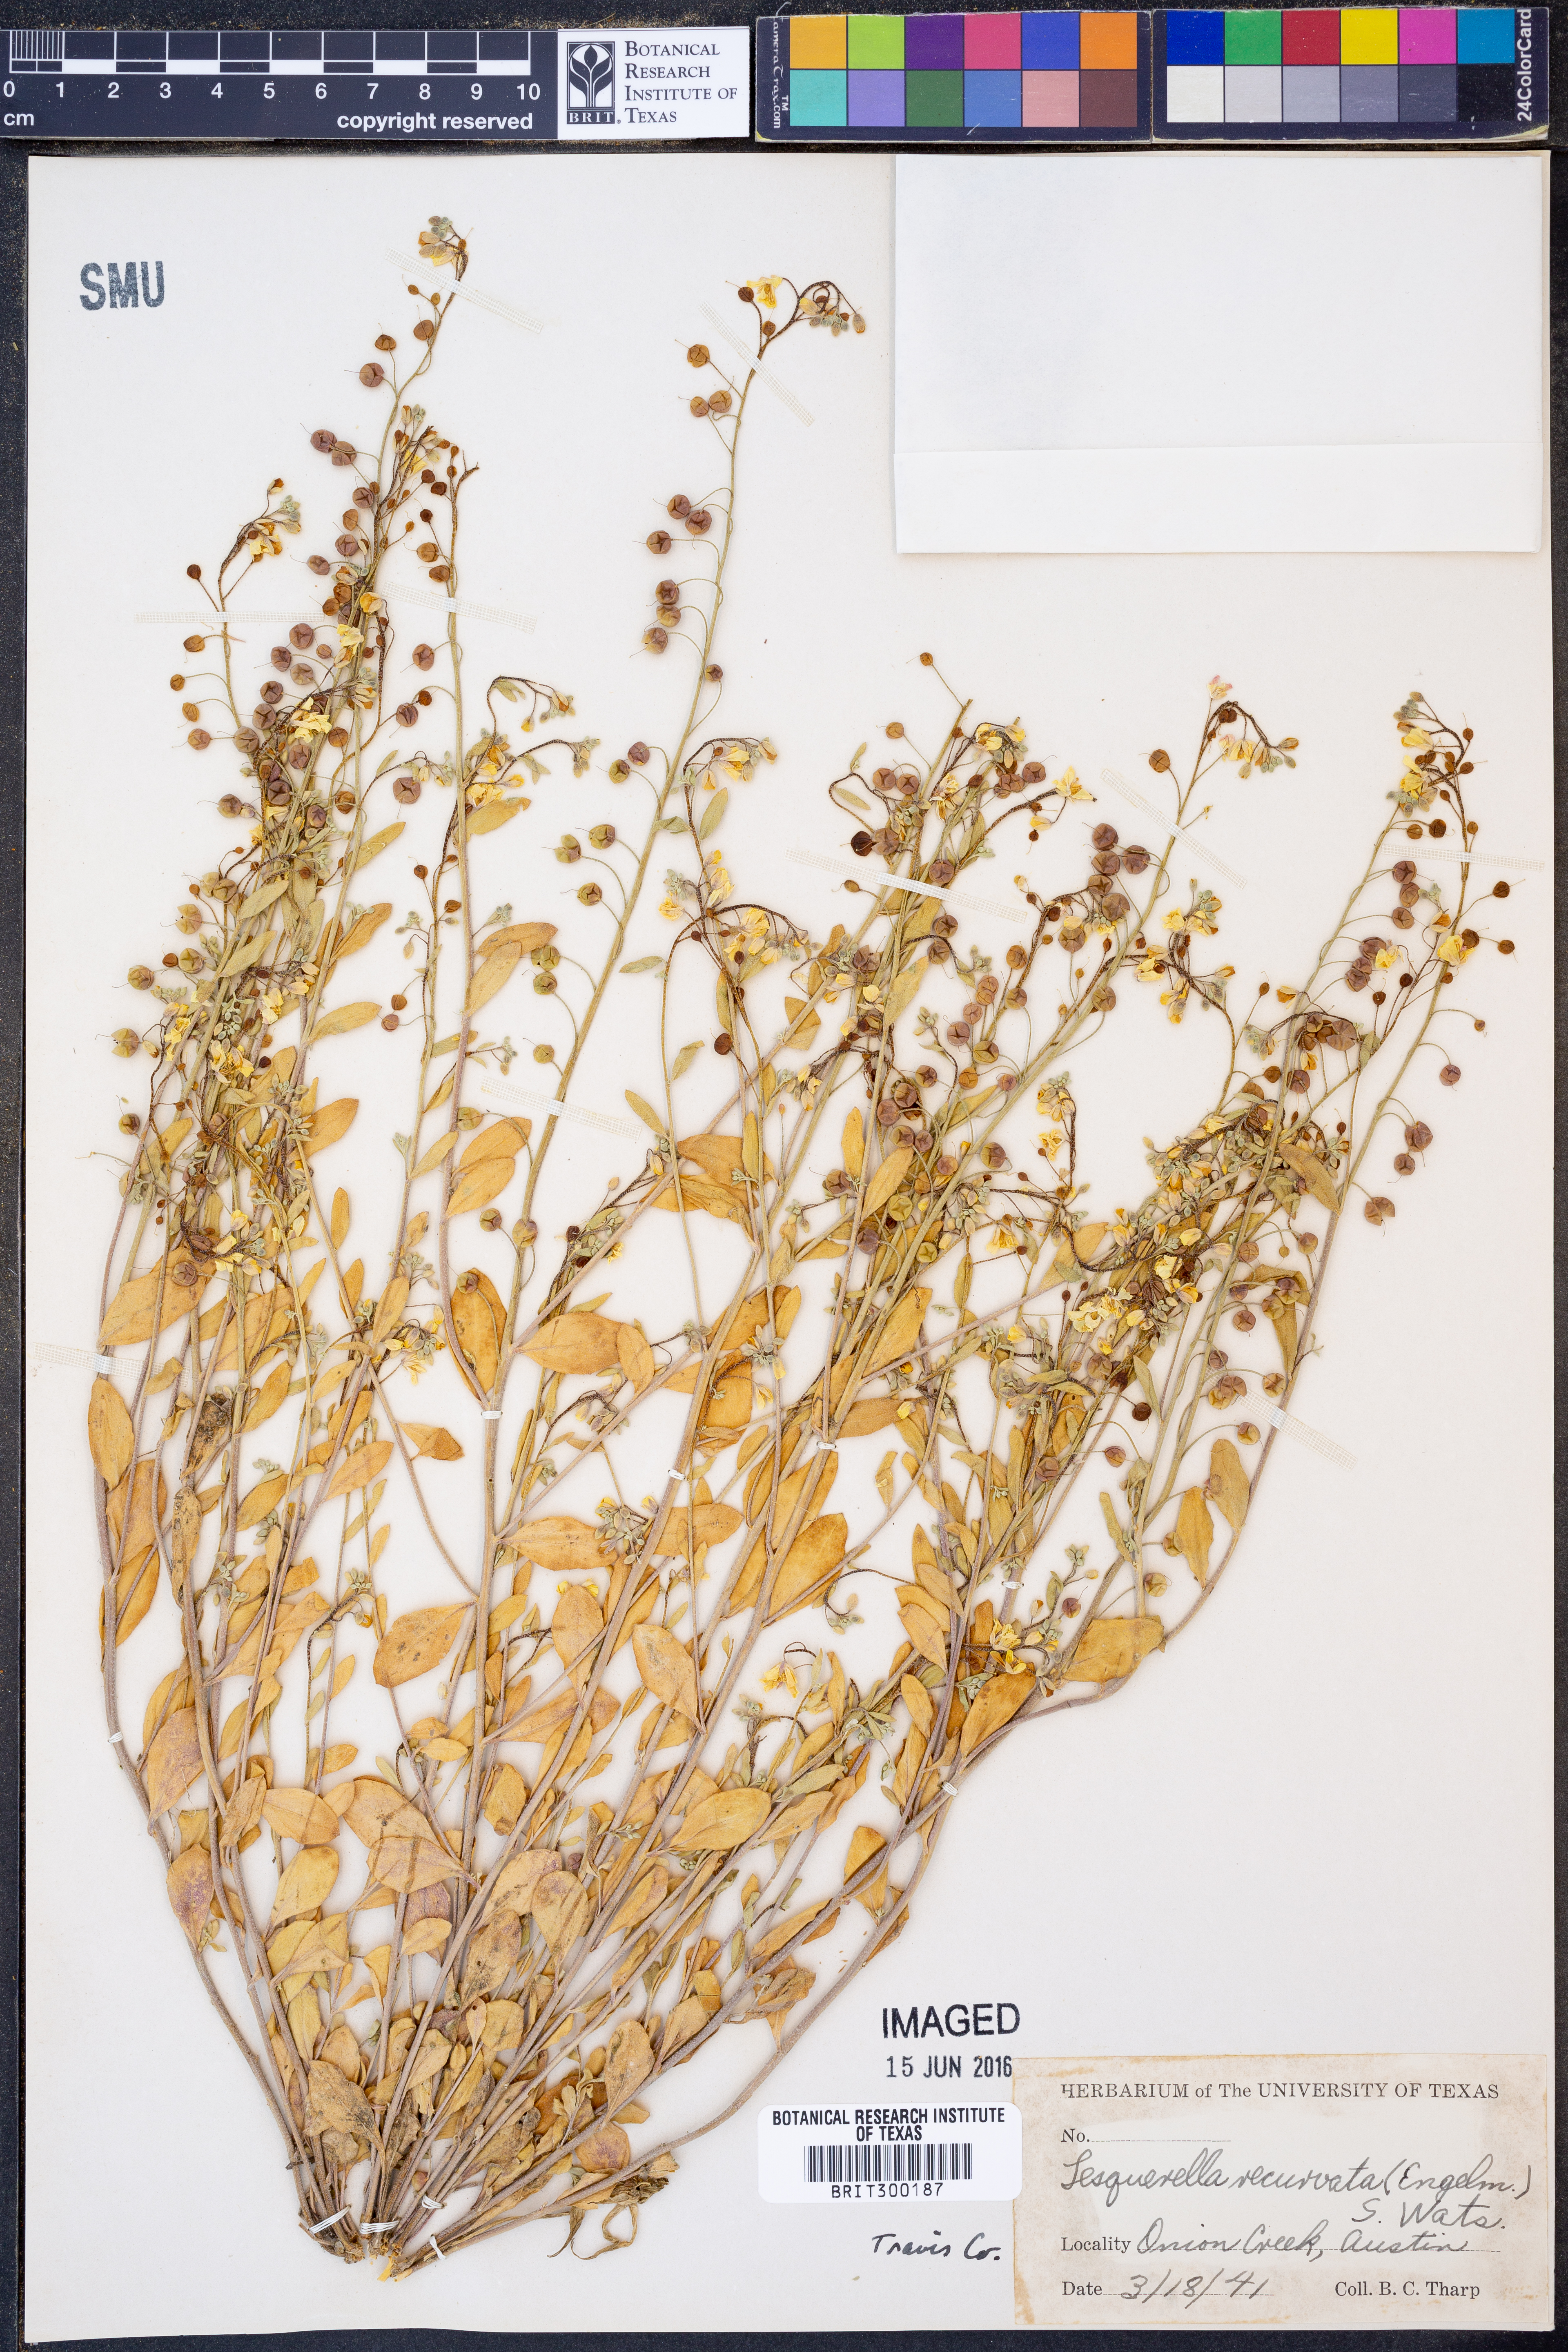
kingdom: Plantae
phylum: Tracheophyta
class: Magnoliopsida
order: Brassicales
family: Brassicaceae
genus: Physaria
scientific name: Physaria recurvata
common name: Gaslight bladderpod
